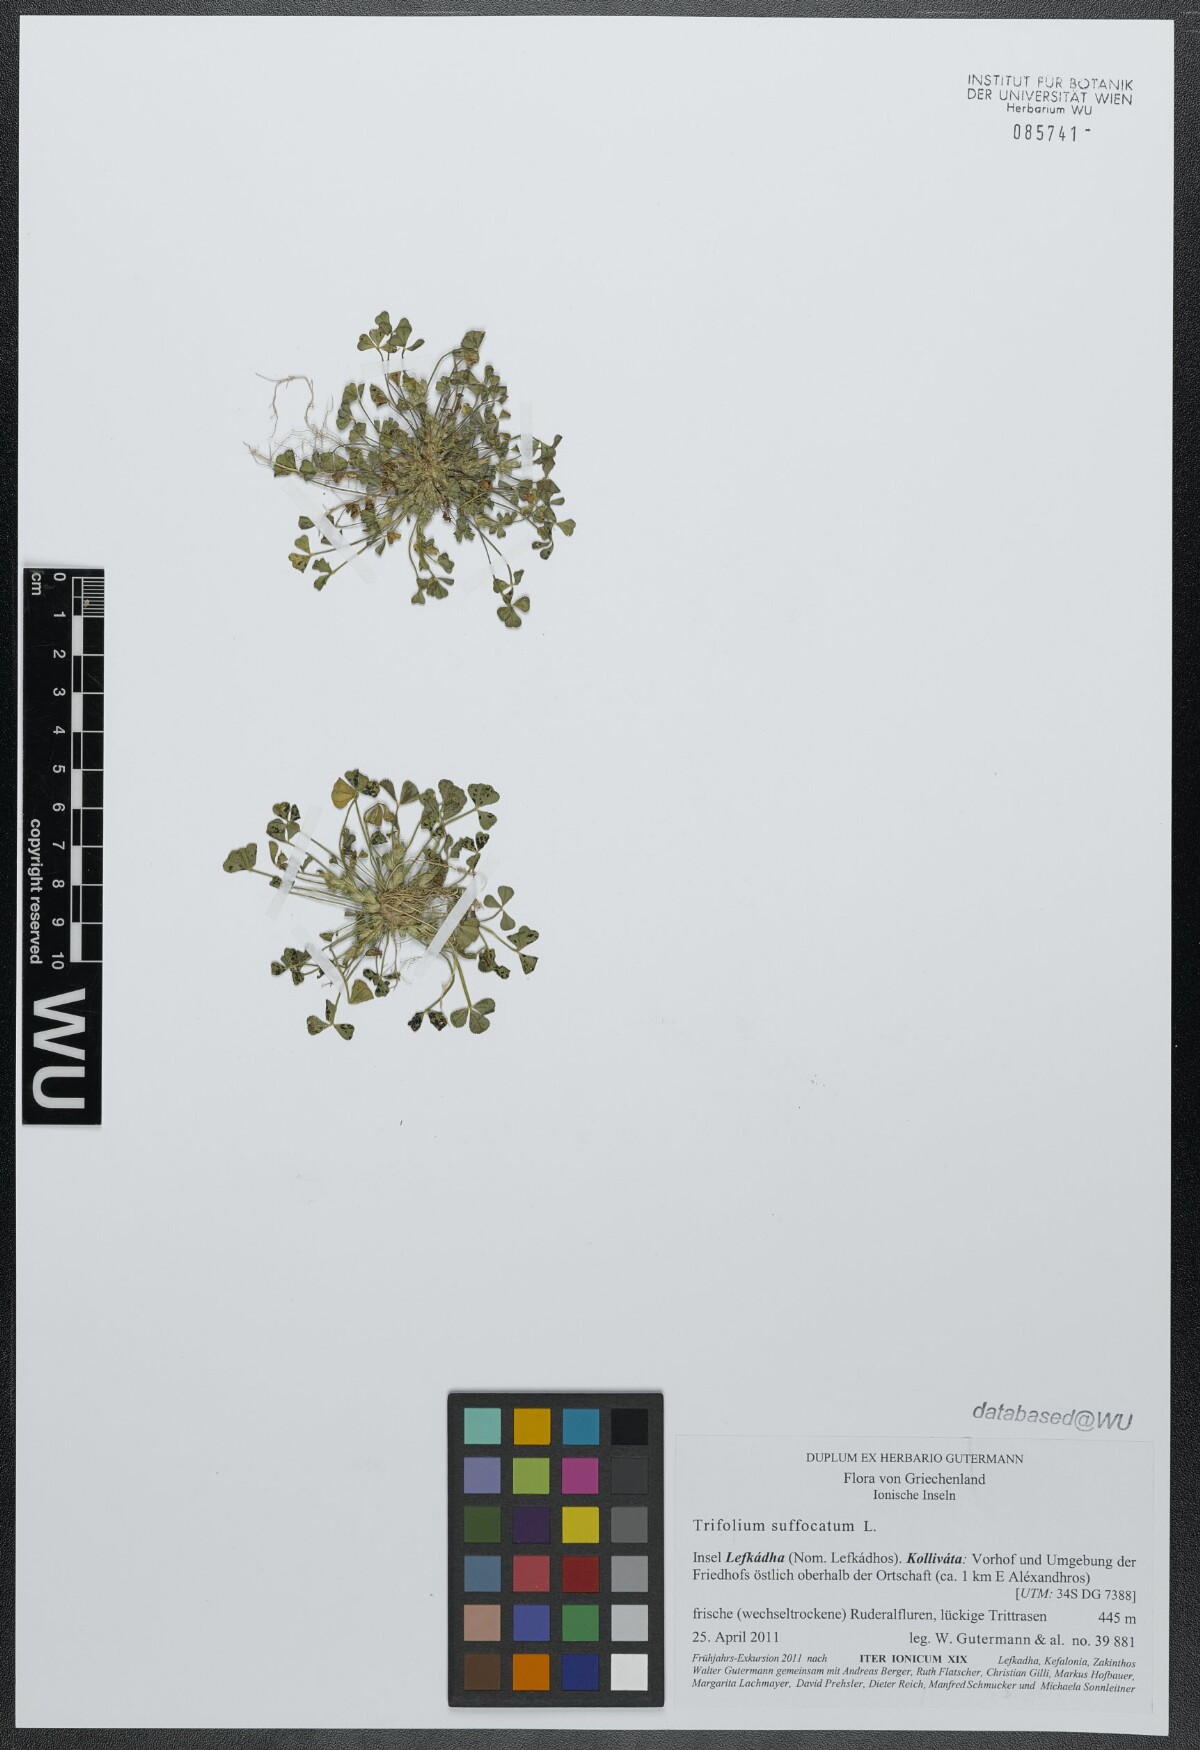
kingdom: Plantae
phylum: Tracheophyta
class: Magnoliopsida
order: Fabales
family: Fabaceae
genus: Trifolium
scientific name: Trifolium suffocatum
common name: Suffocated clover
